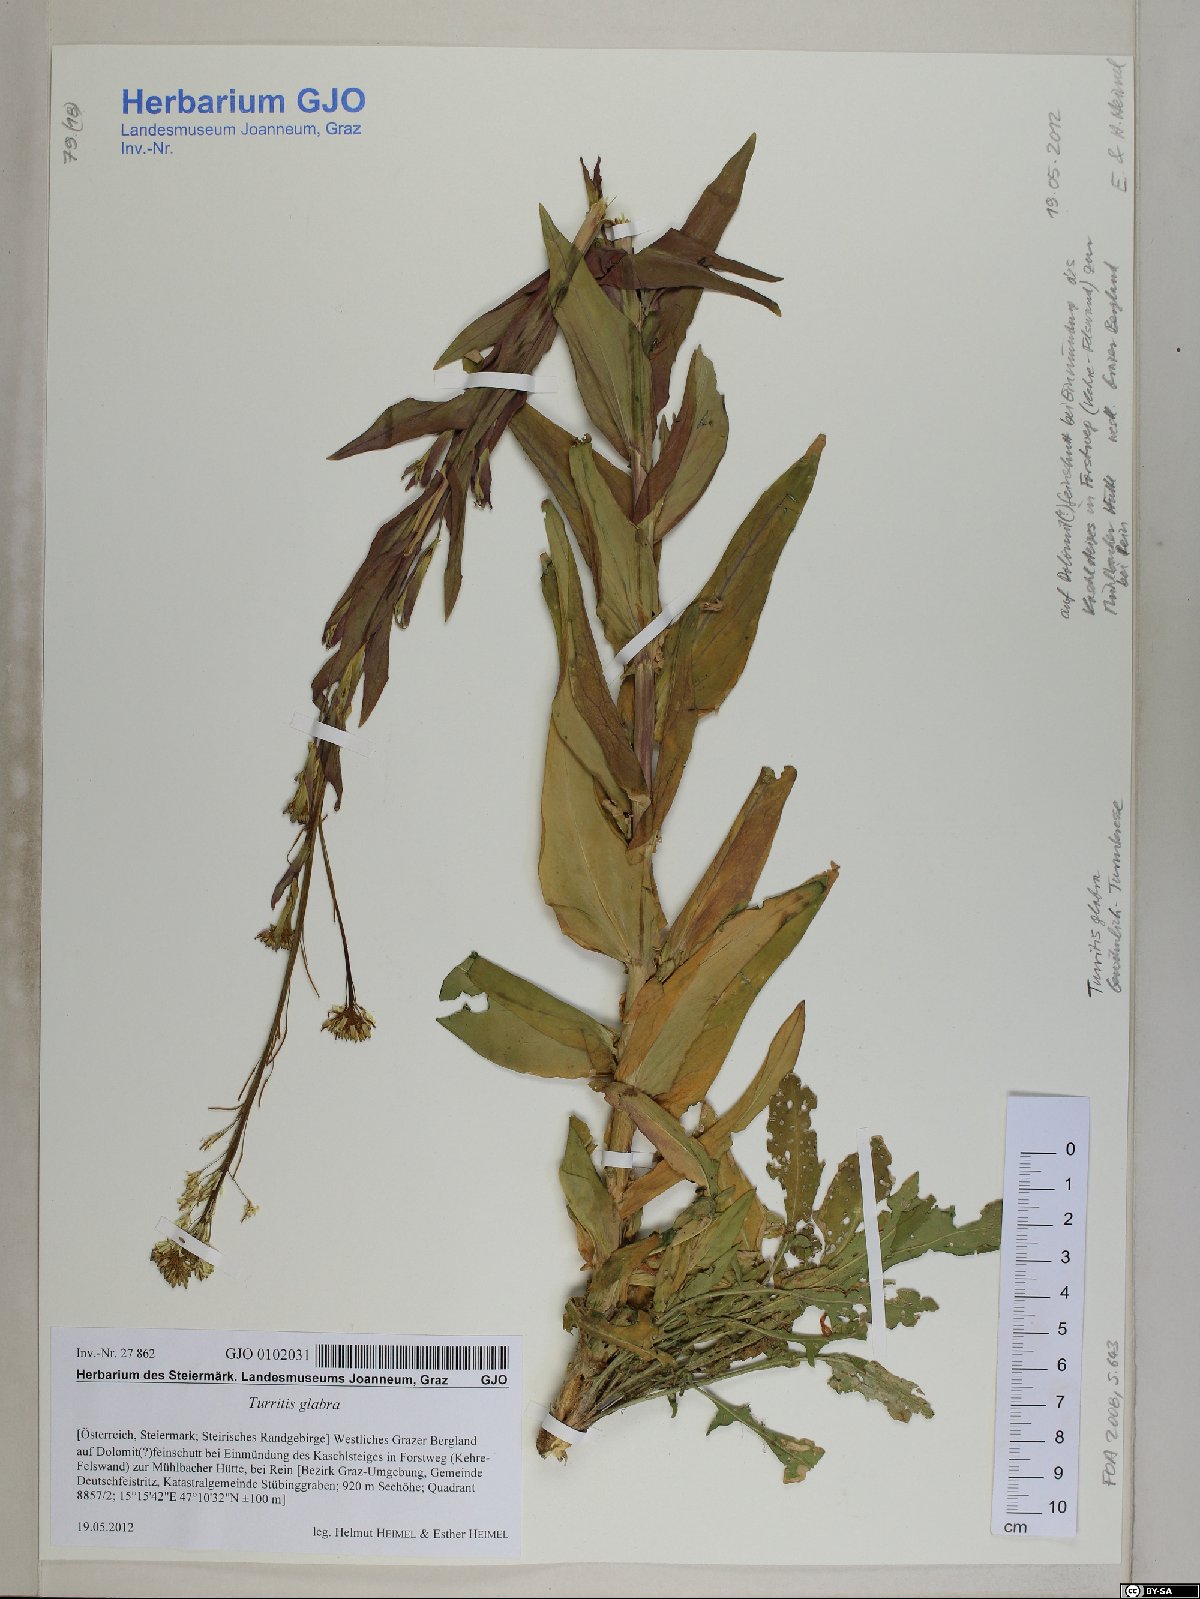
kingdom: Plantae
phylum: Tracheophyta
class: Magnoliopsida
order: Brassicales
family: Brassicaceae
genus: Turritis
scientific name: Turritis glabra
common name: Tower rockcress
